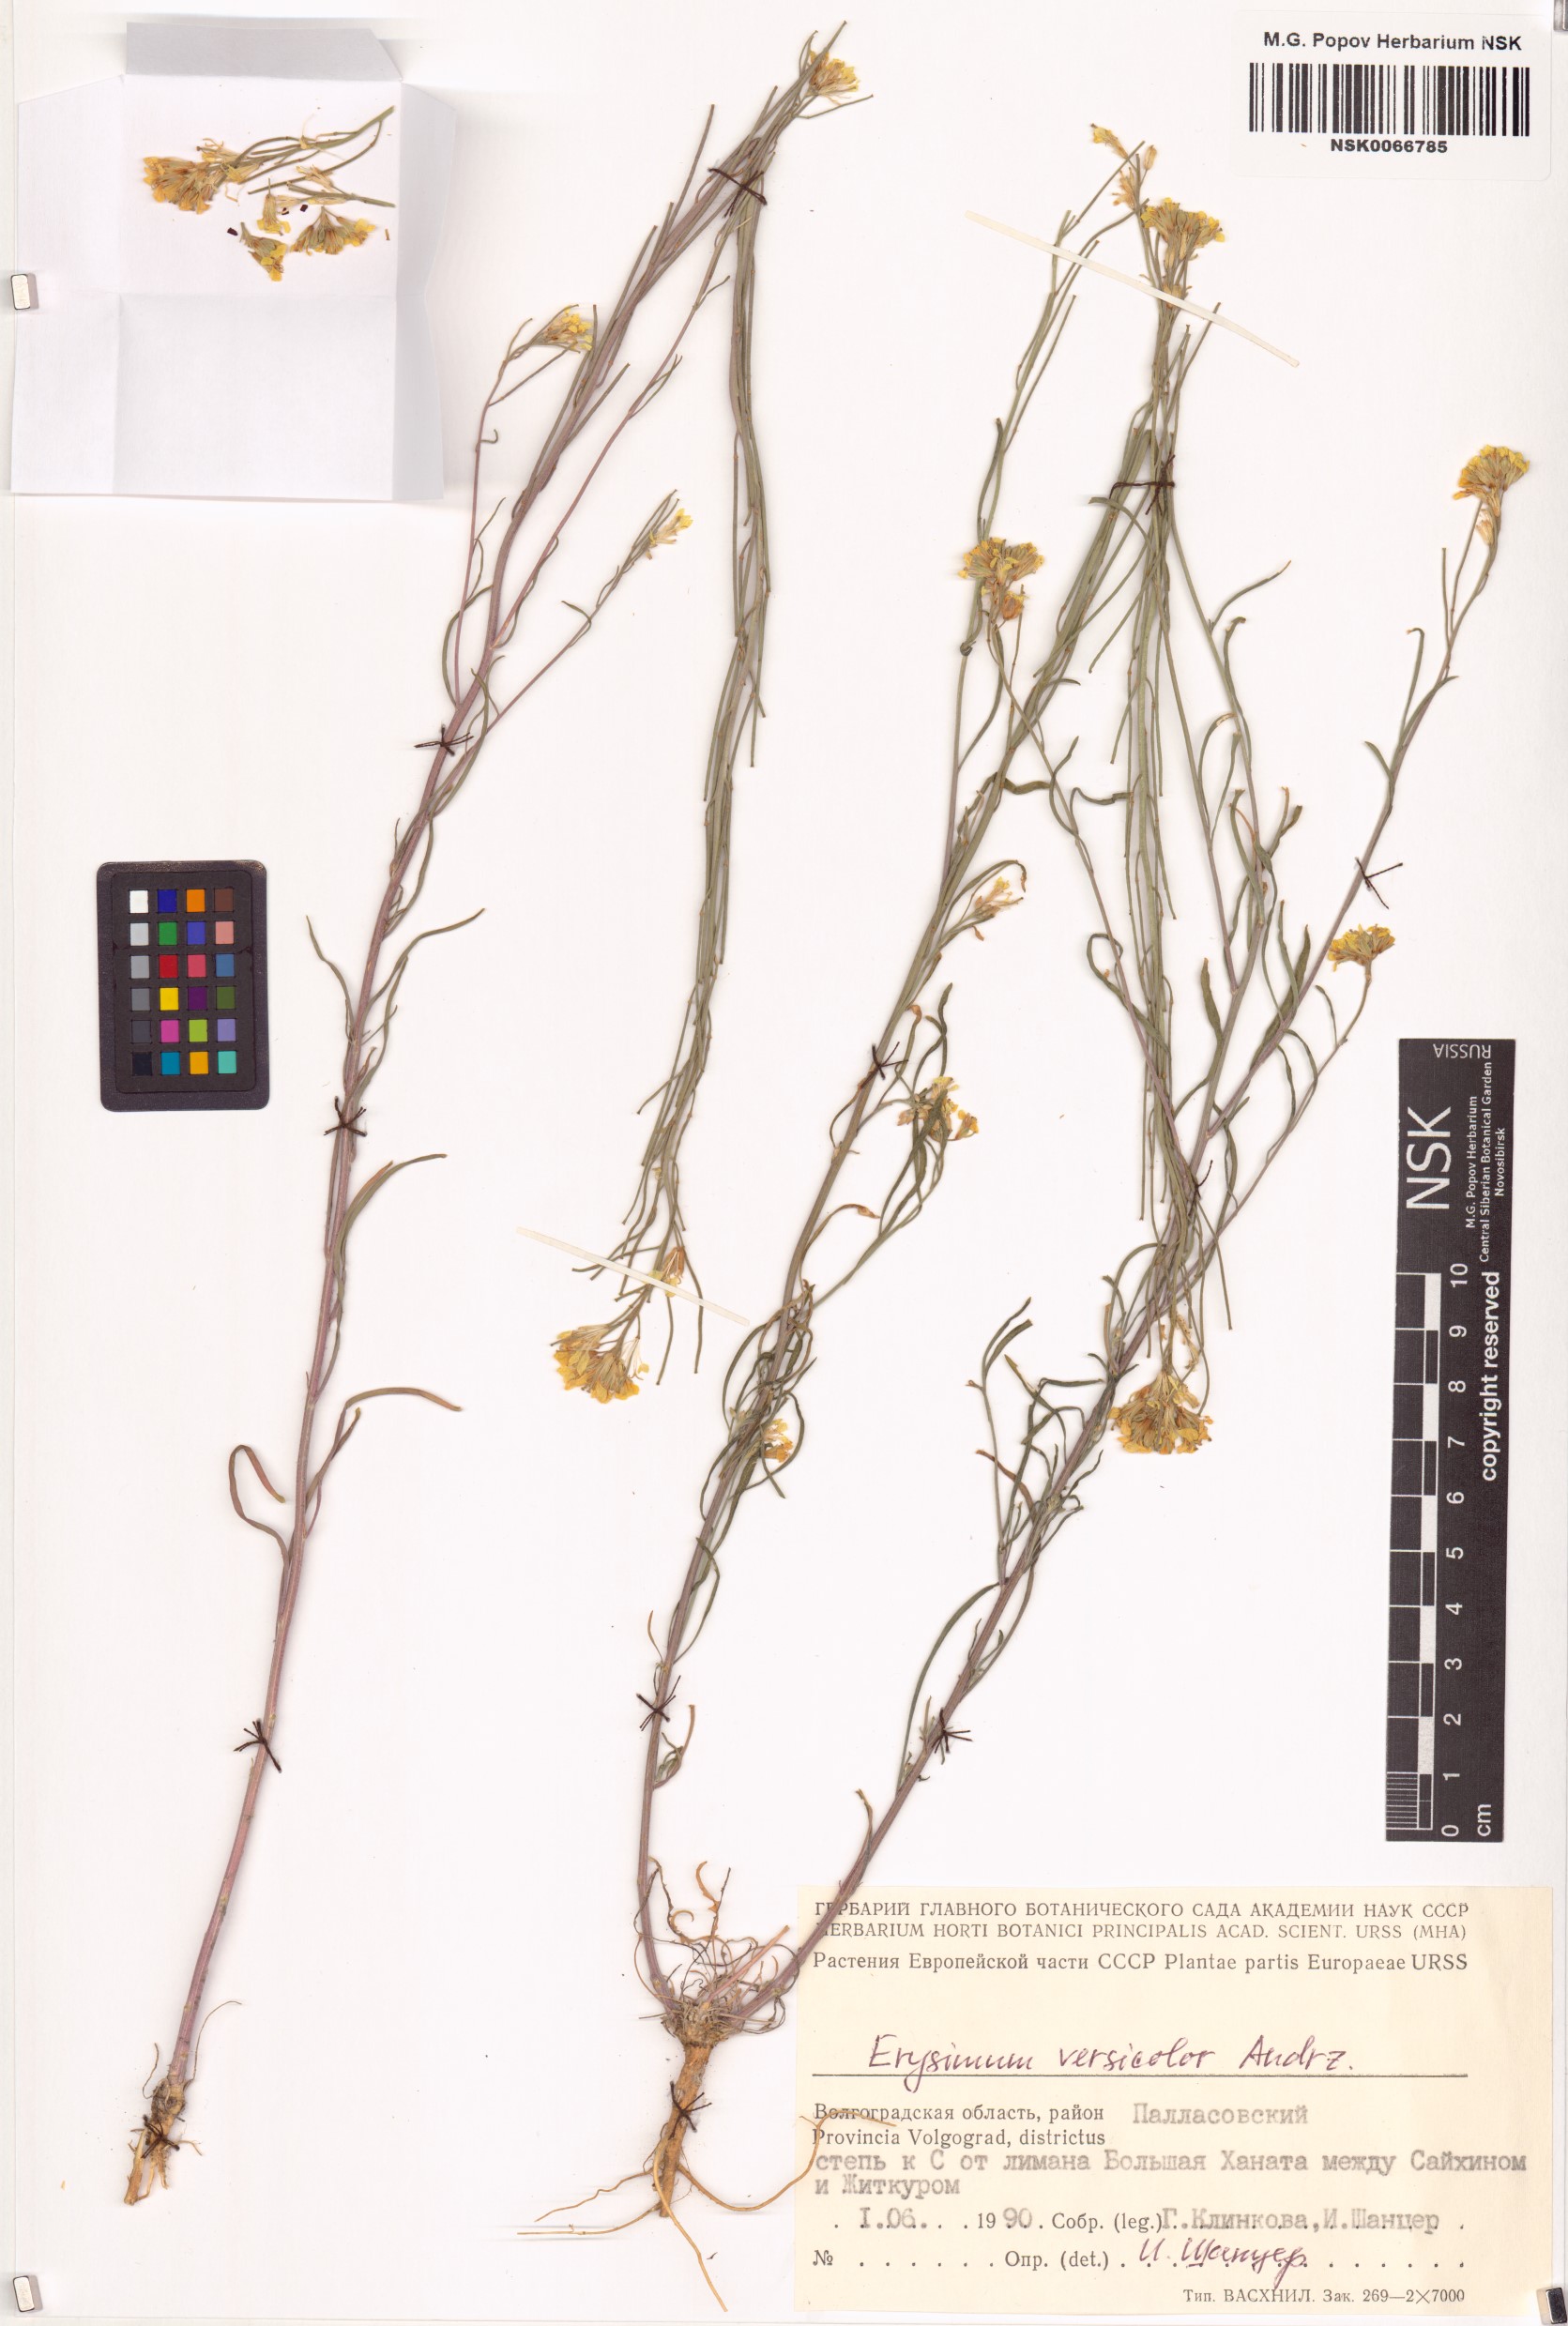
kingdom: Plantae
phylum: Tracheophyta
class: Magnoliopsida
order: Brassicales
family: Brassicaceae
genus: Erysimum
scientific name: Erysimum leucanthemum
